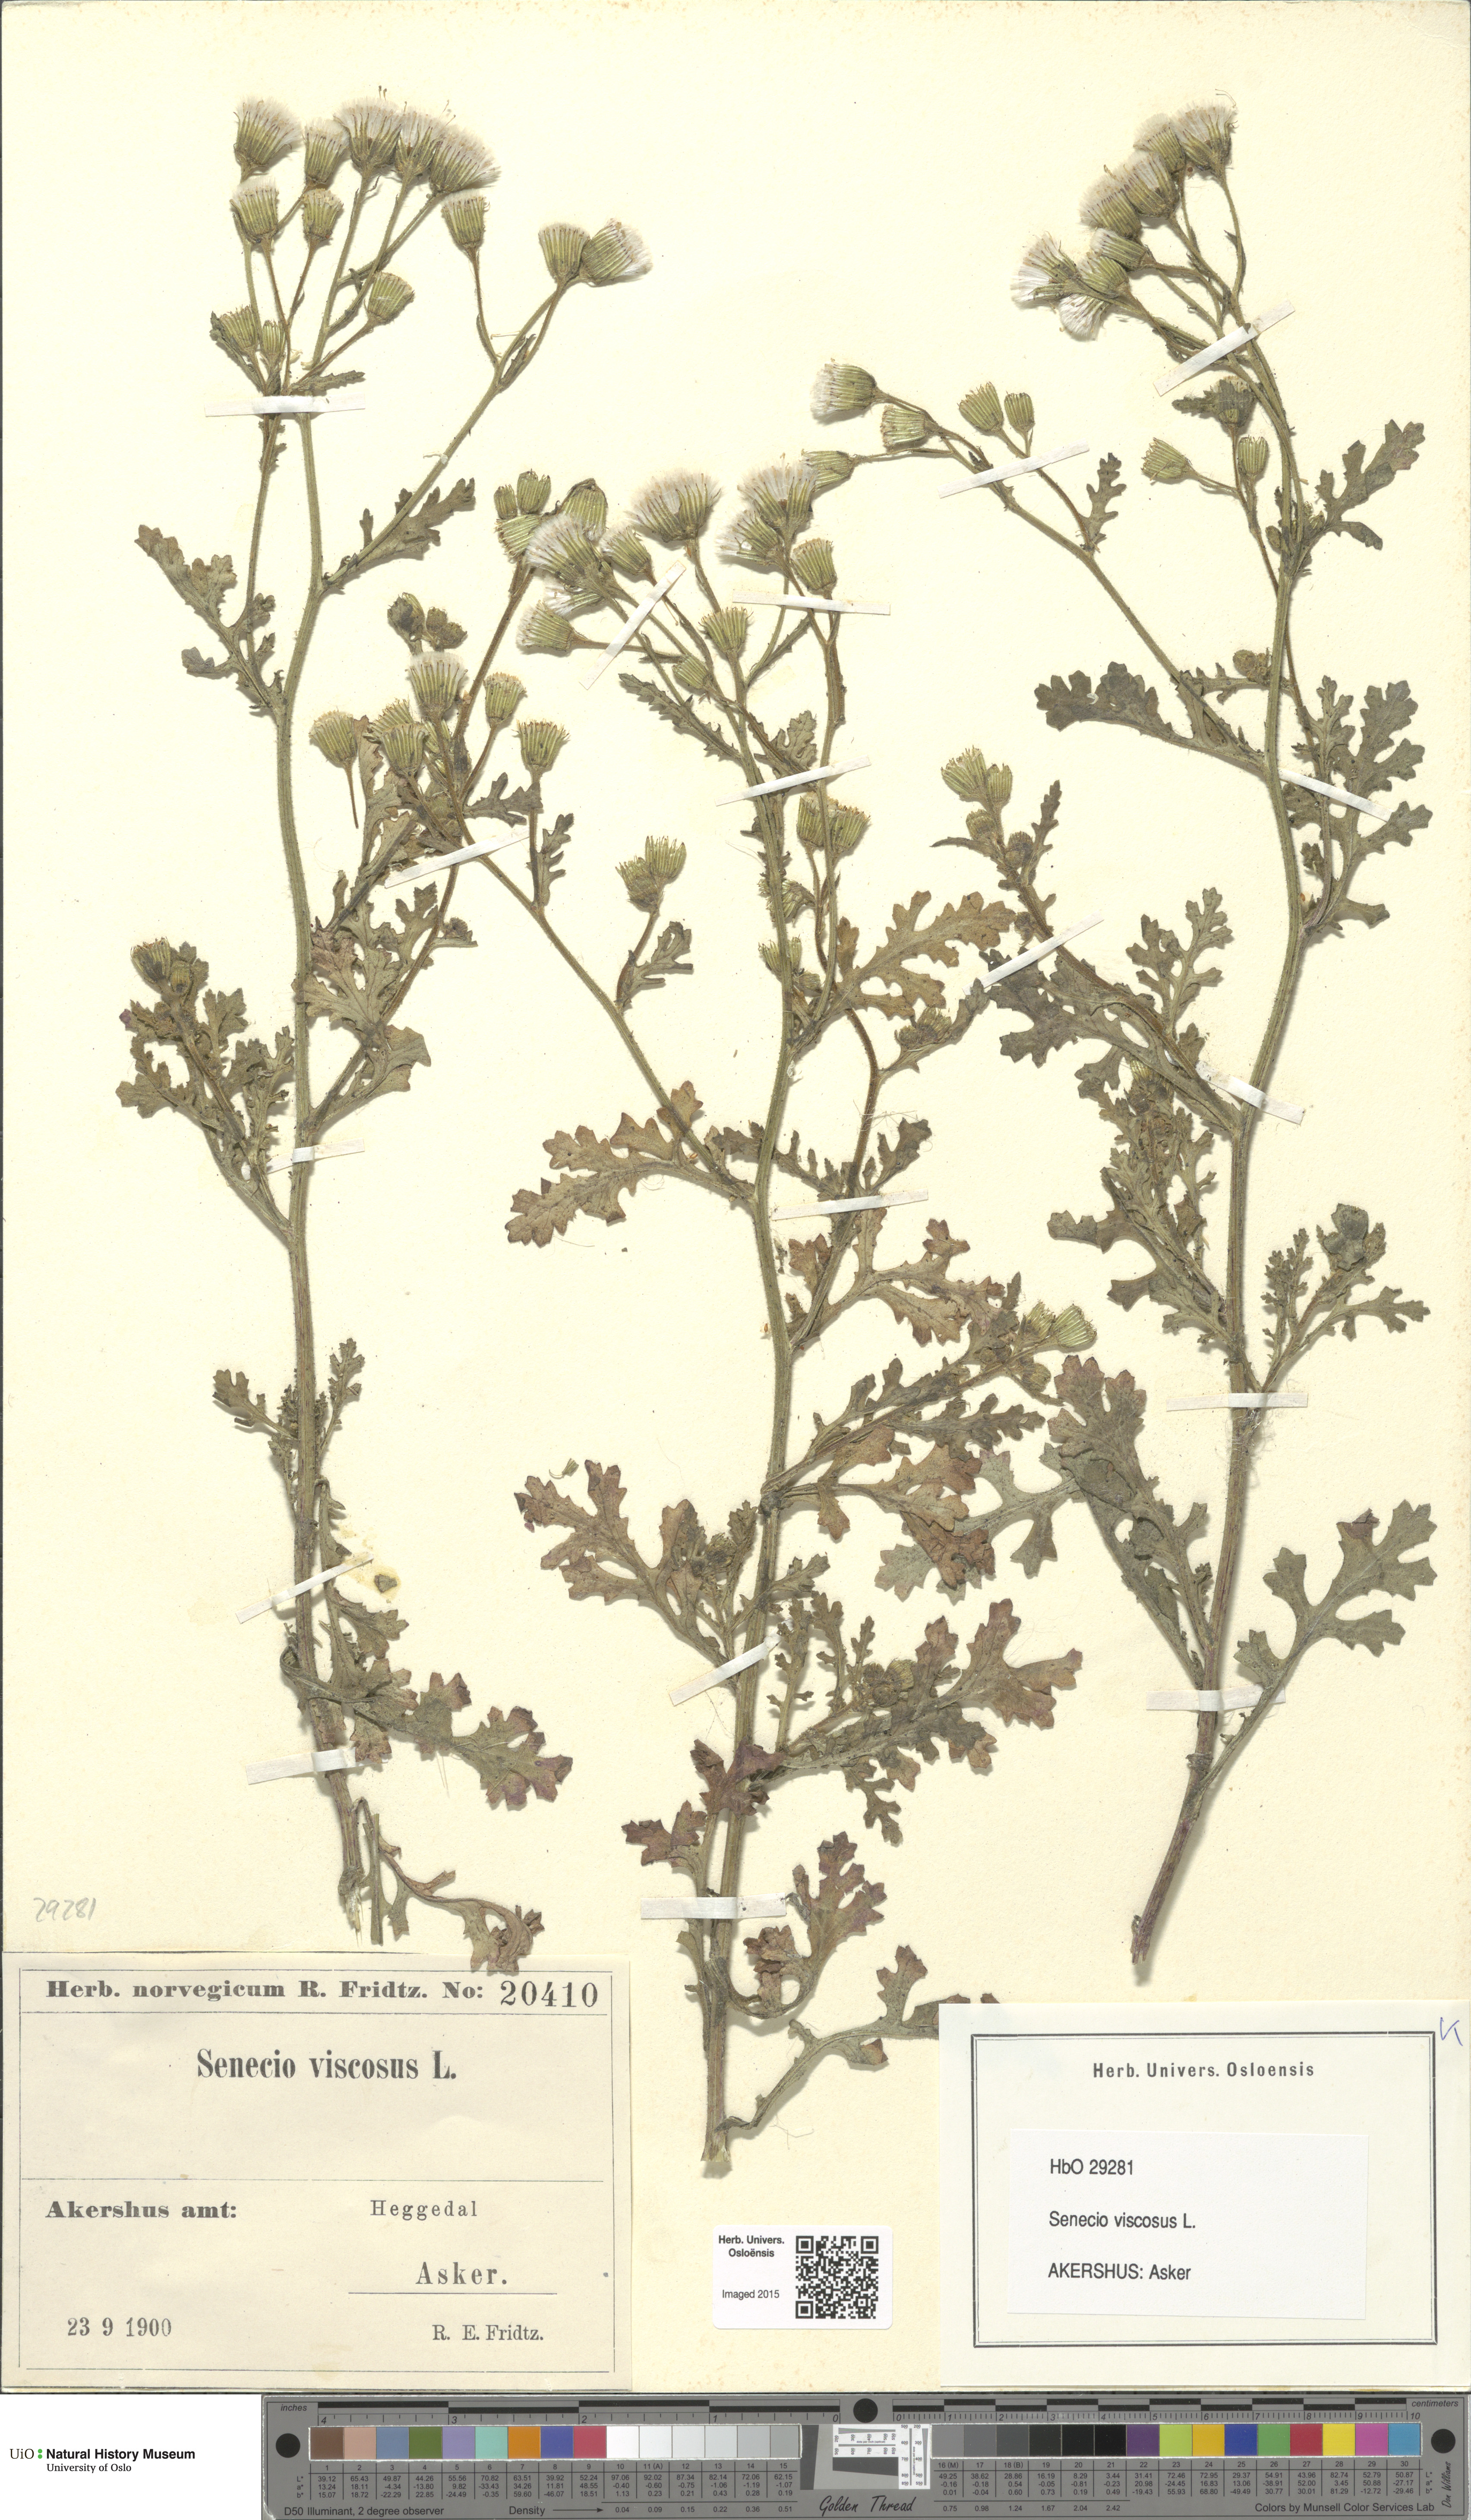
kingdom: Plantae
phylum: Tracheophyta
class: Magnoliopsida
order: Asterales
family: Asteraceae
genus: Senecio
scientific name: Senecio viscosus
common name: Sticky groundsel
